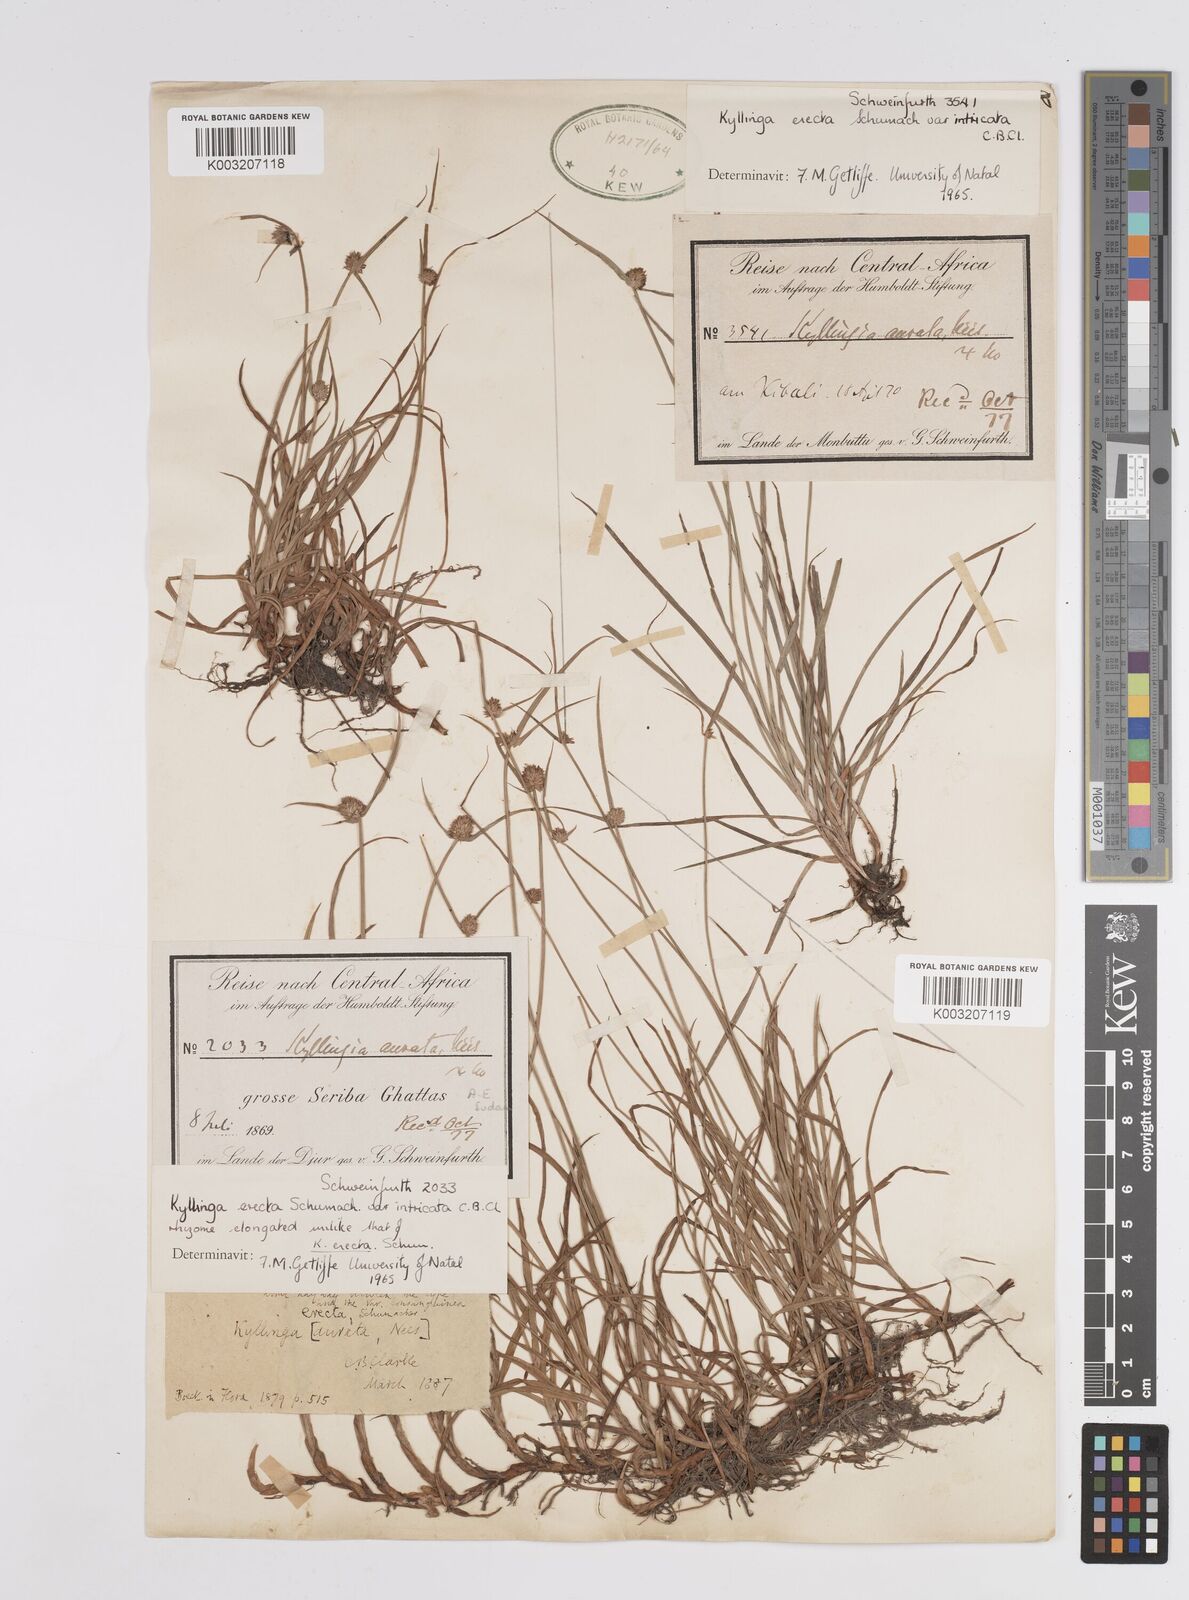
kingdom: Plantae
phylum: Tracheophyta
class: Liliopsida
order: Poales
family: Cyperaceae
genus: Cyperus
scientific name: Cyperus
